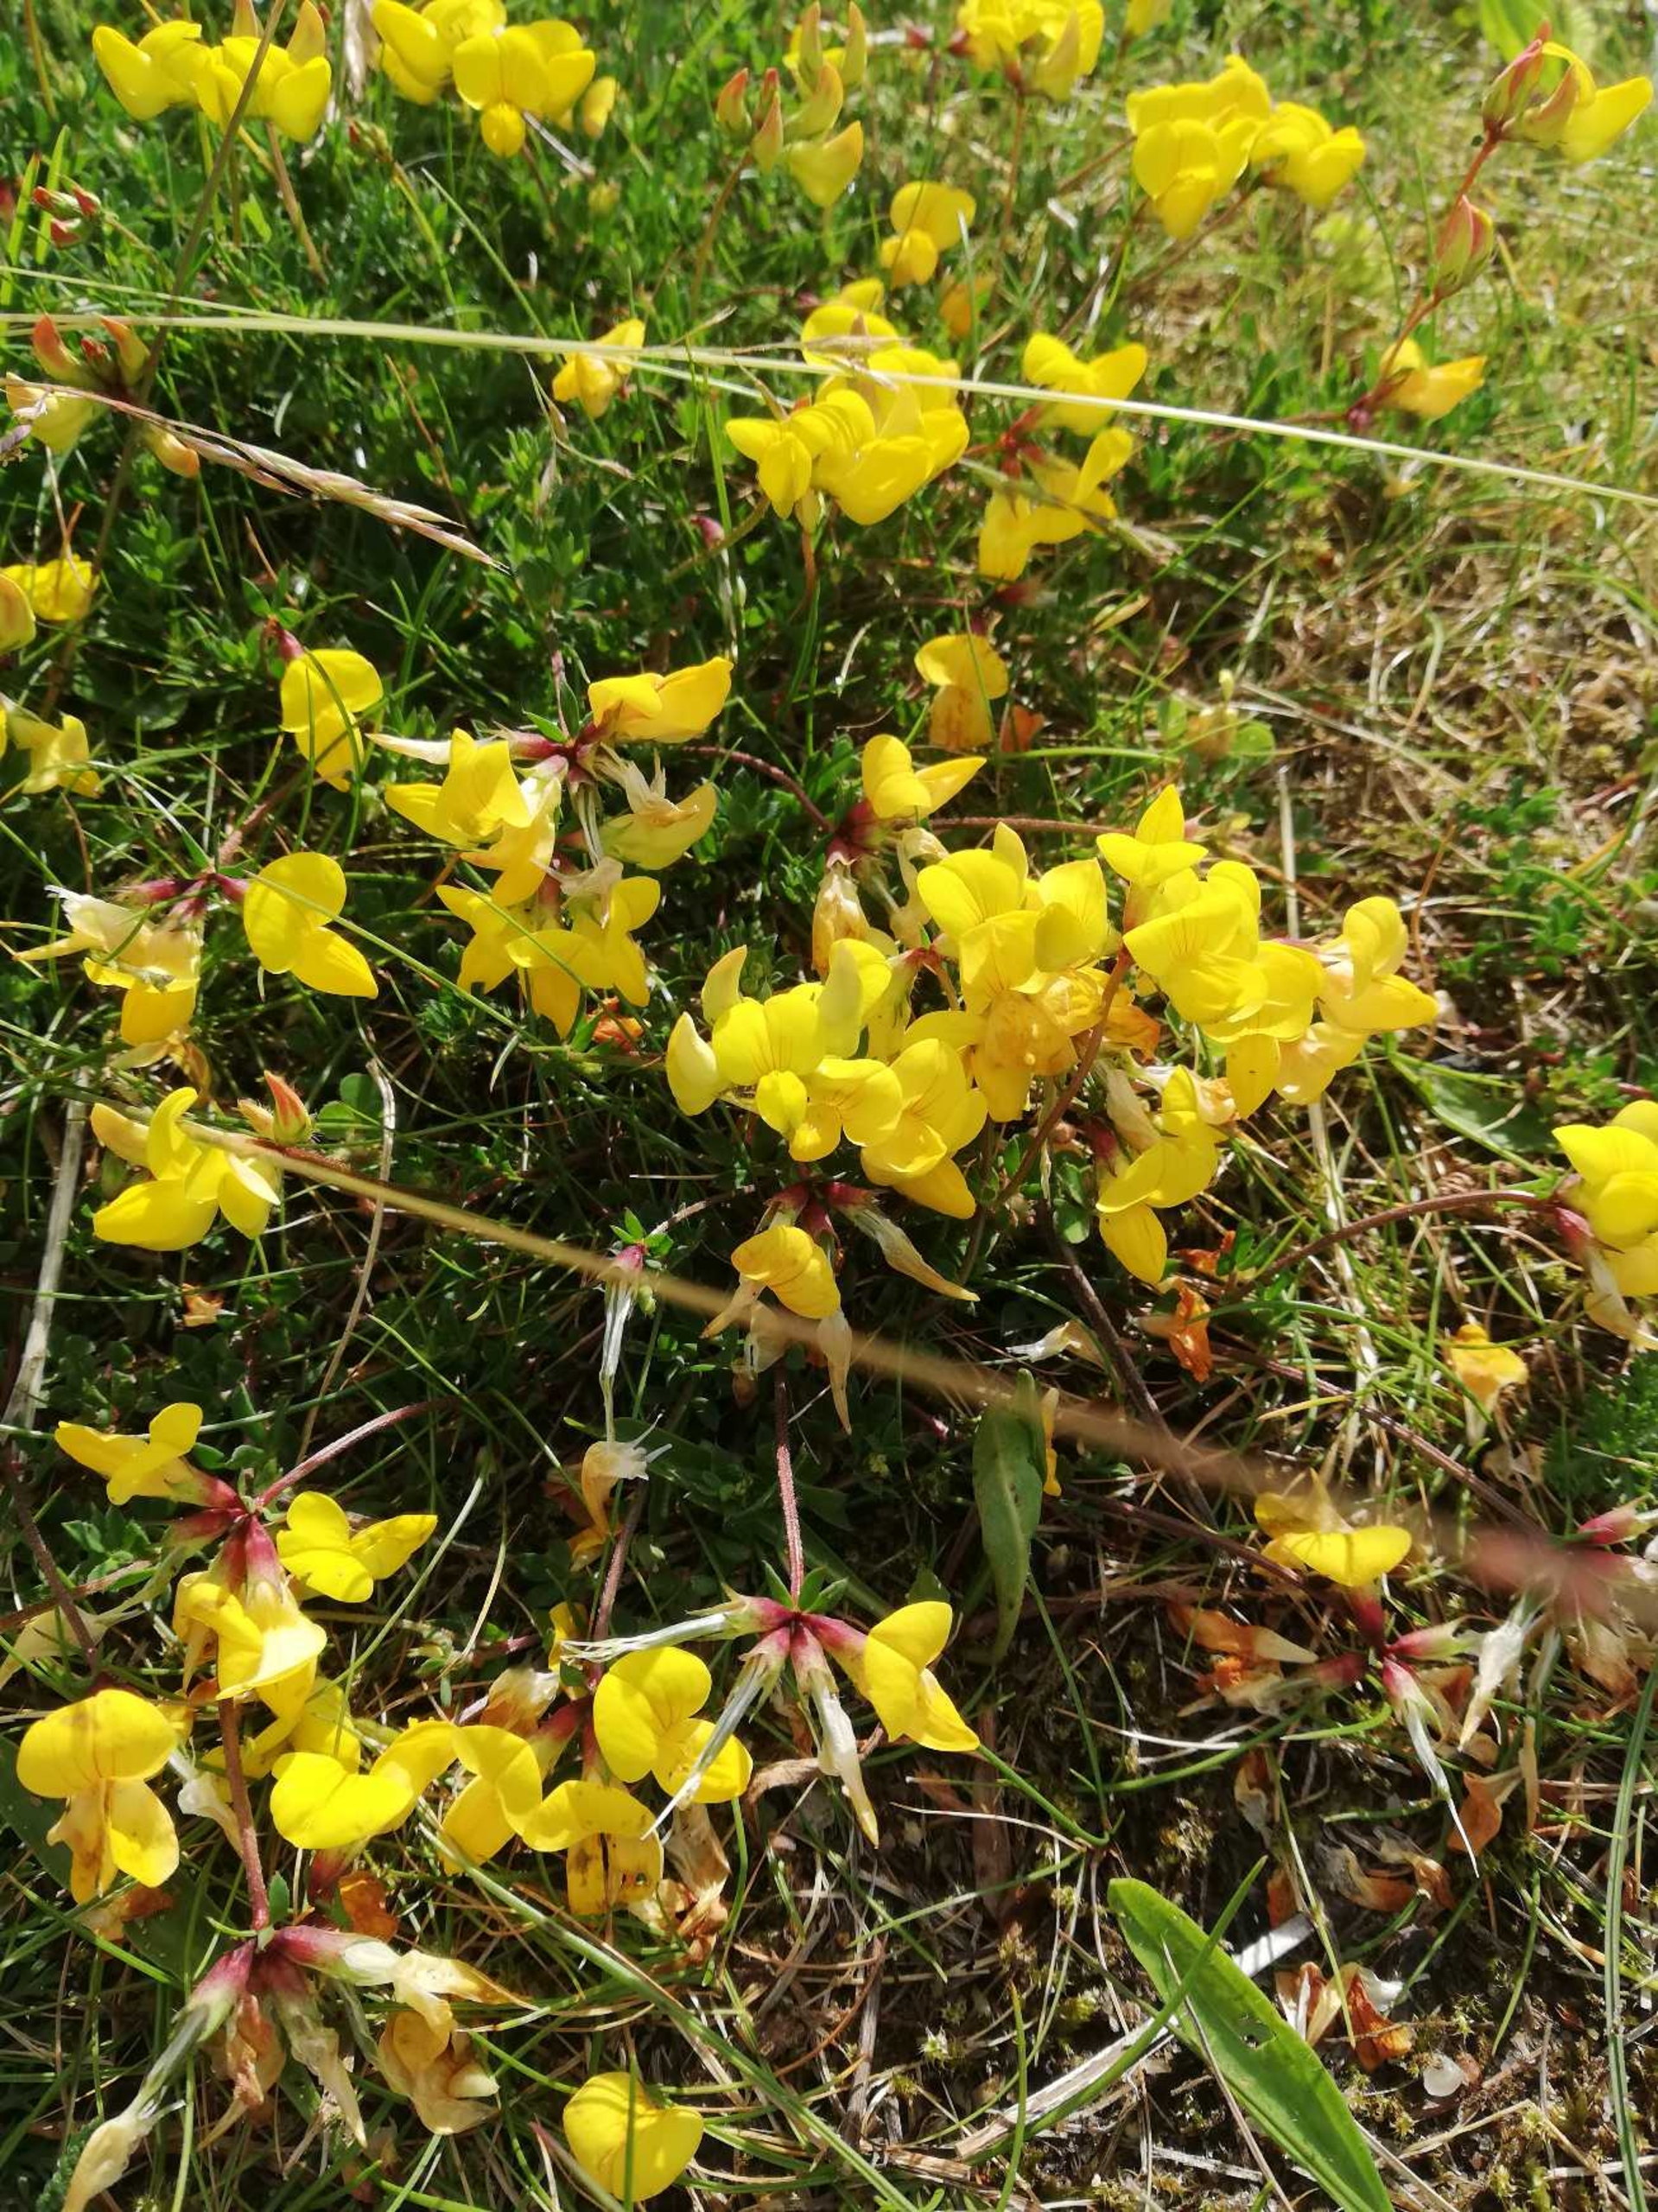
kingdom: Plantae
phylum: Tracheophyta
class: Magnoliopsida
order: Fabales
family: Fabaceae
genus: Lotus
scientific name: Lotus corniculatus
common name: Almindelig kællingetand
